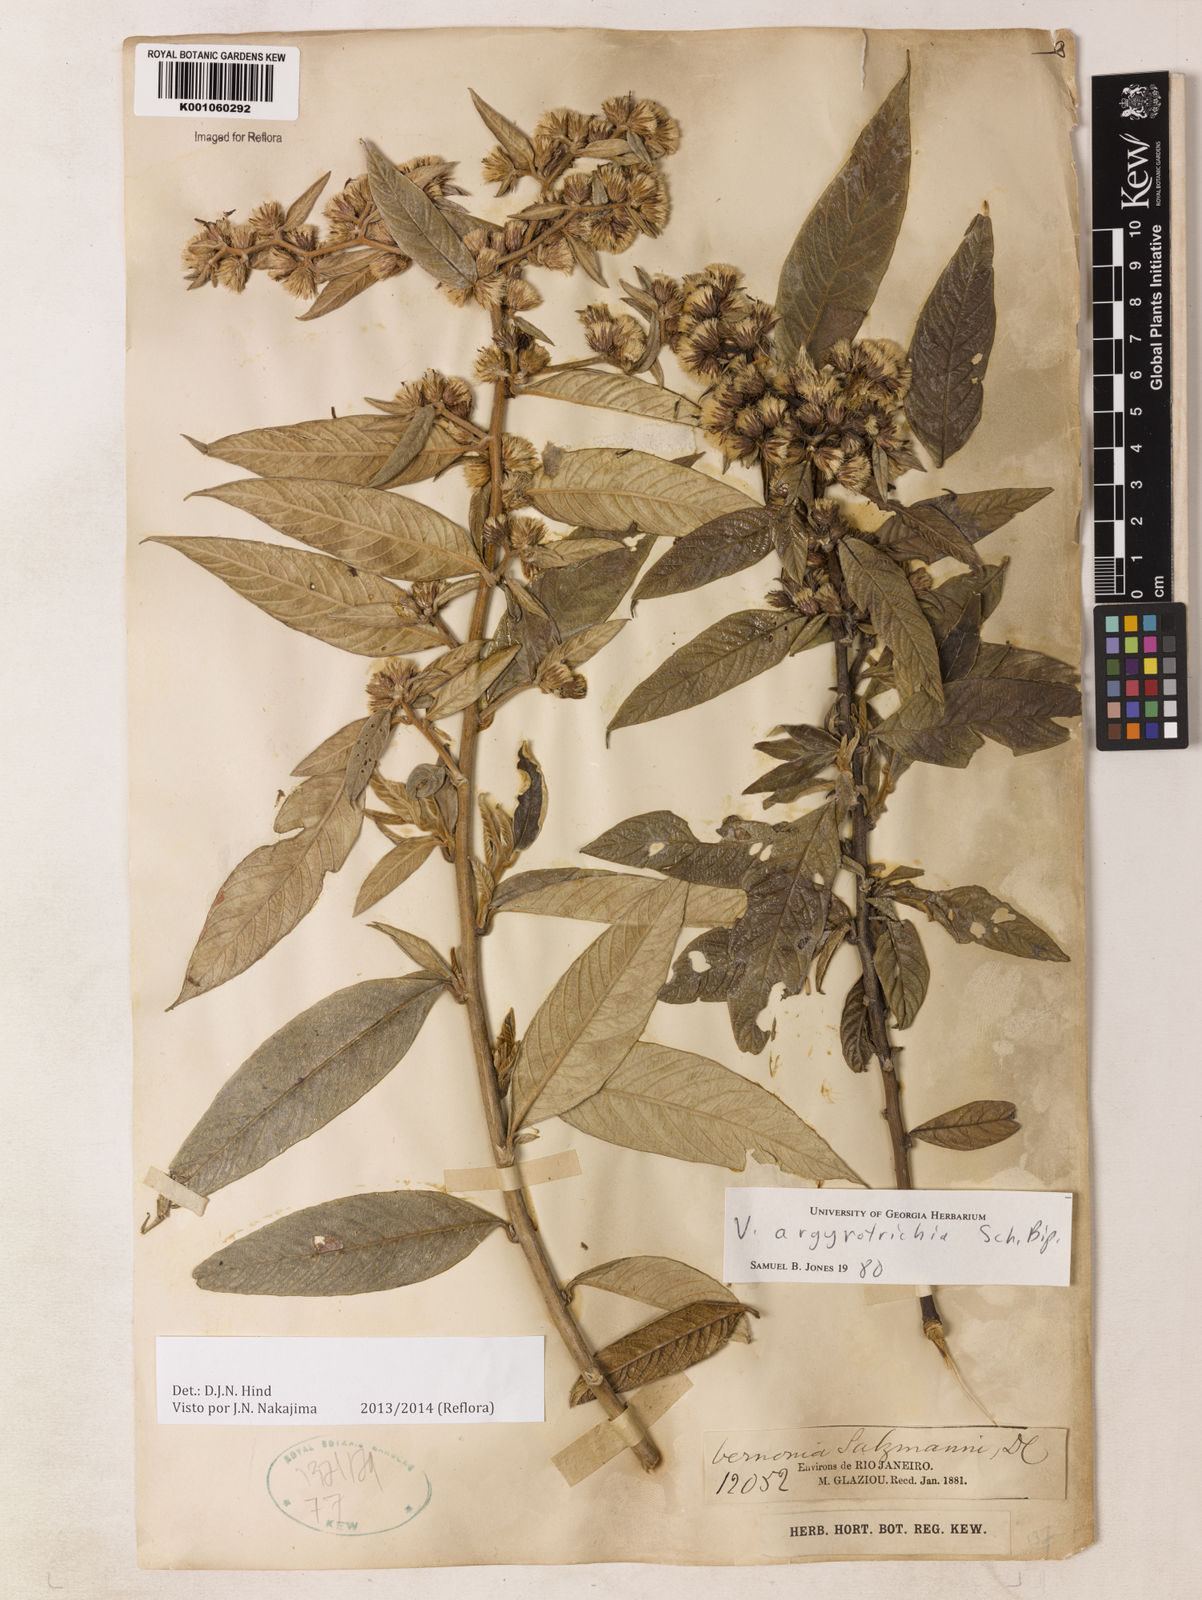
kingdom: Plantae
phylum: Tracheophyta
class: Magnoliopsida
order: Asterales
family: Asteraceae
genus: Lepidaploa
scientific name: Lepidaploa argyrotricha
